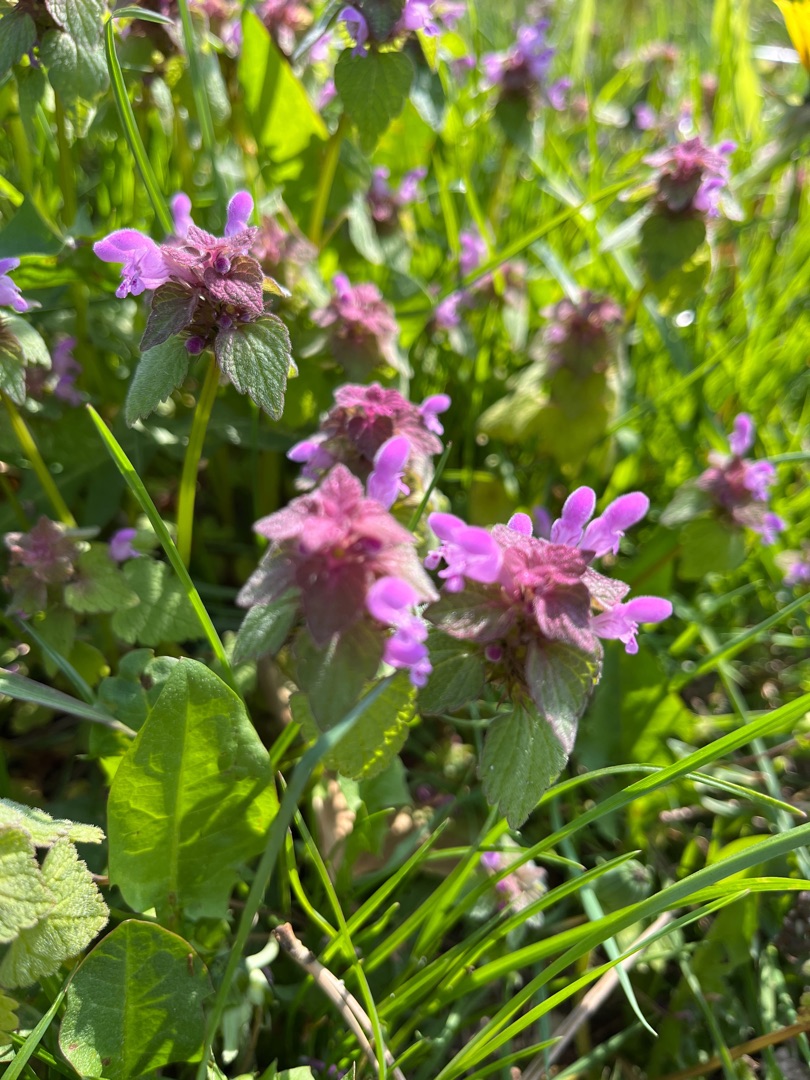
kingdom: Plantae
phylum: Tracheophyta
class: Magnoliopsida
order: Lamiales
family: Lamiaceae
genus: Lamium
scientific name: Lamium purpureum
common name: Rød tvetand
